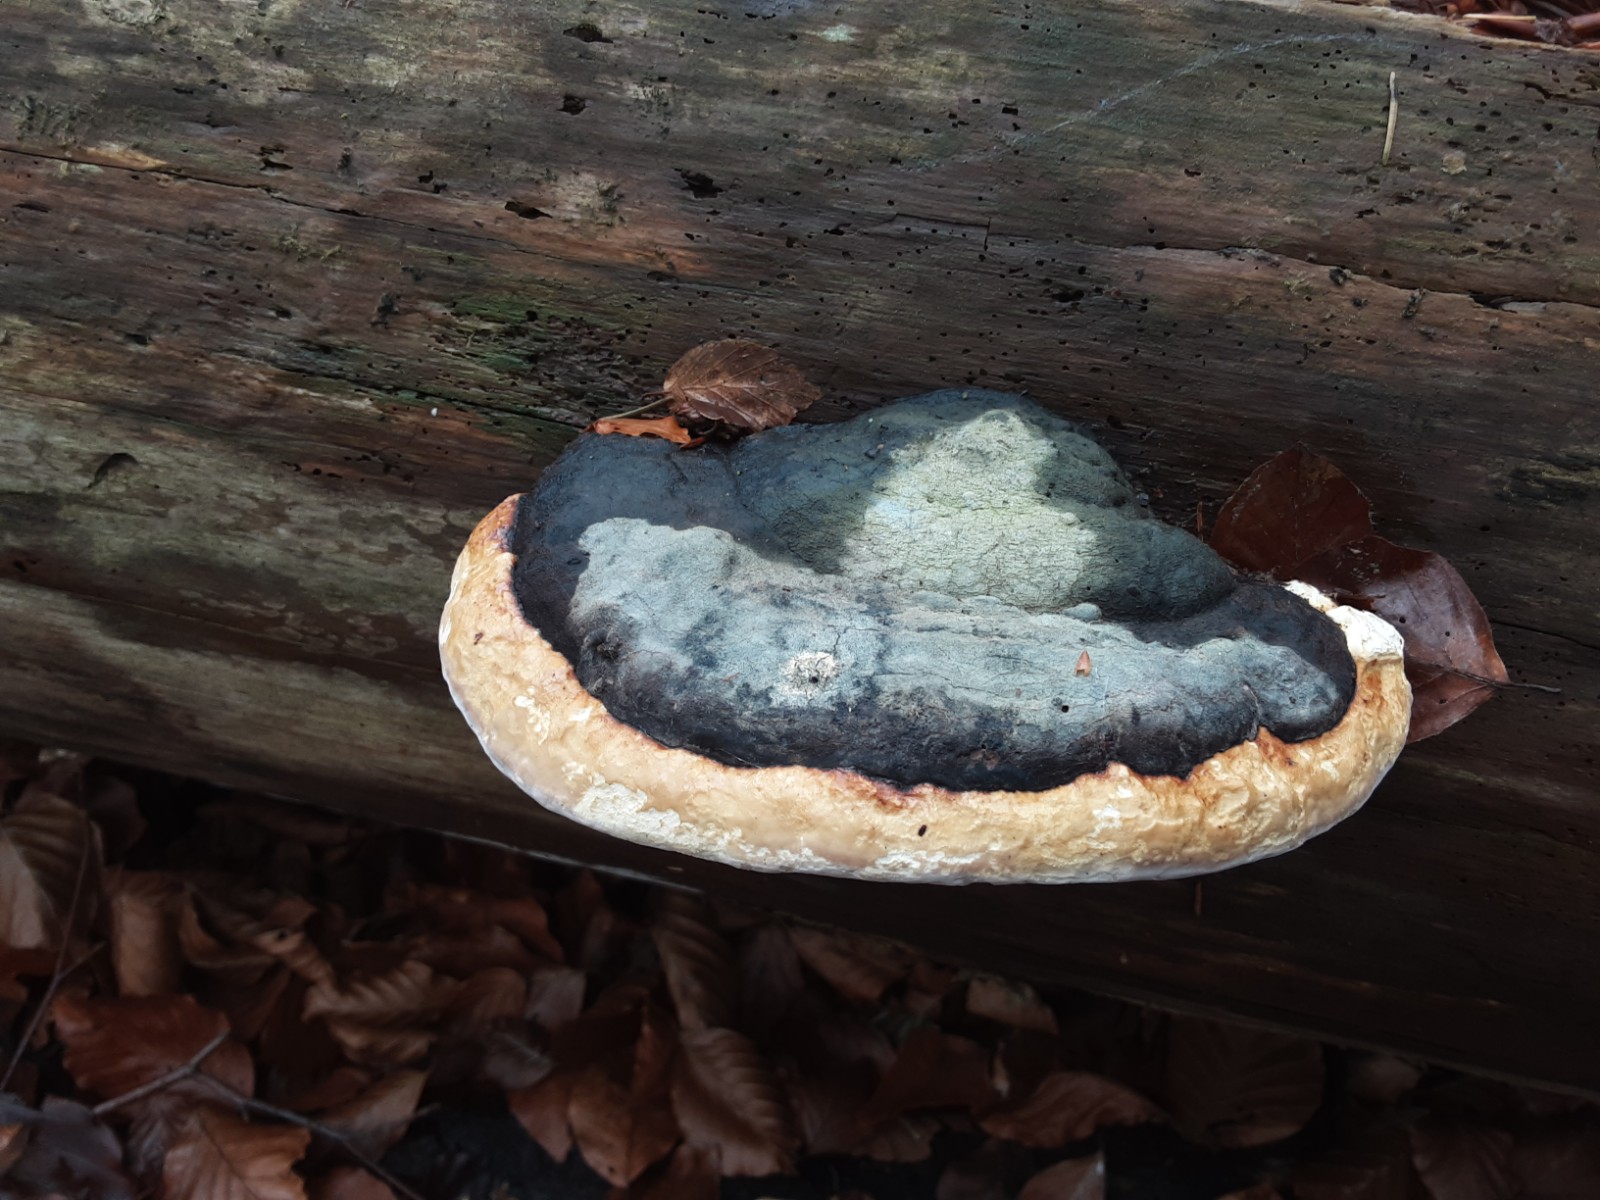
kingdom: Fungi
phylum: Basidiomycota
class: Agaricomycetes
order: Polyporales
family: Fomitopsidaceae
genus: Fomitopsis
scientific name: Fomitopsis pinicola
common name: randbæltet hovporesvamp
